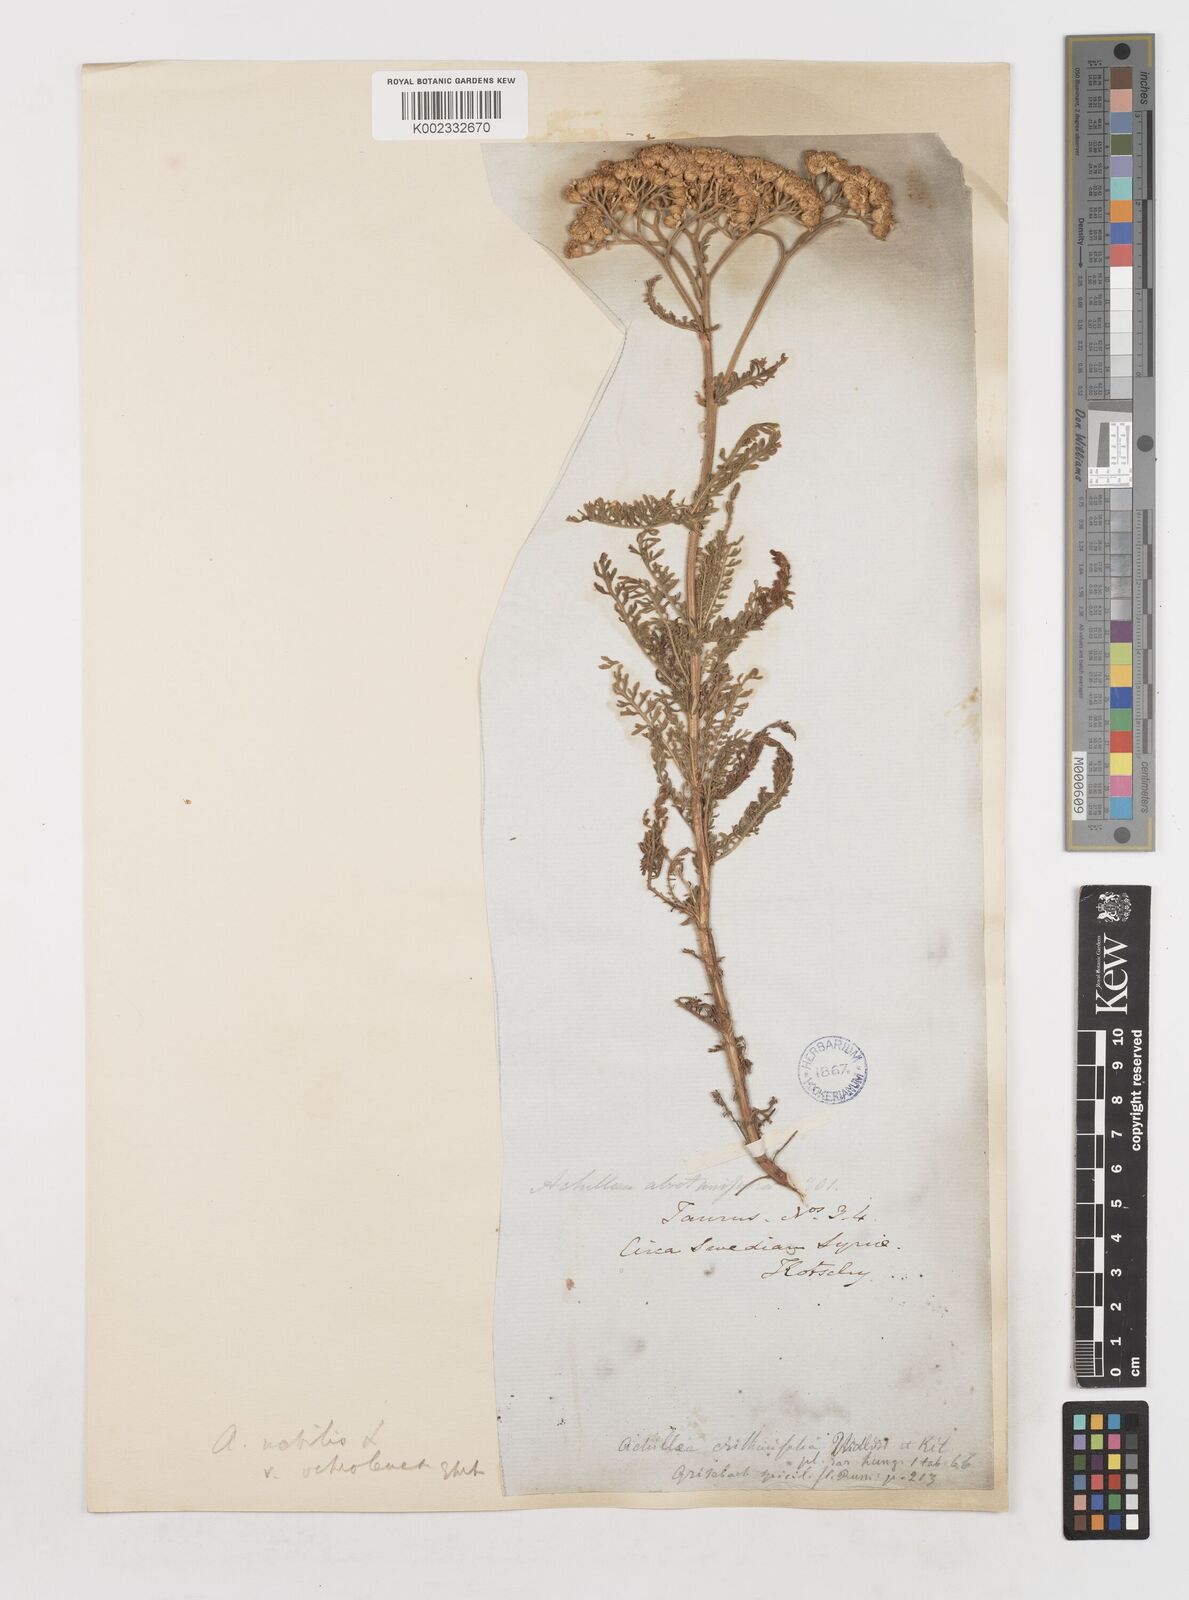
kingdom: Plantae
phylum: Tracheophyta
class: Magnoliopsida
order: Asterales
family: Asteraceae
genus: Achillea
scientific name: Achillea nobilis
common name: Noble yarrow
